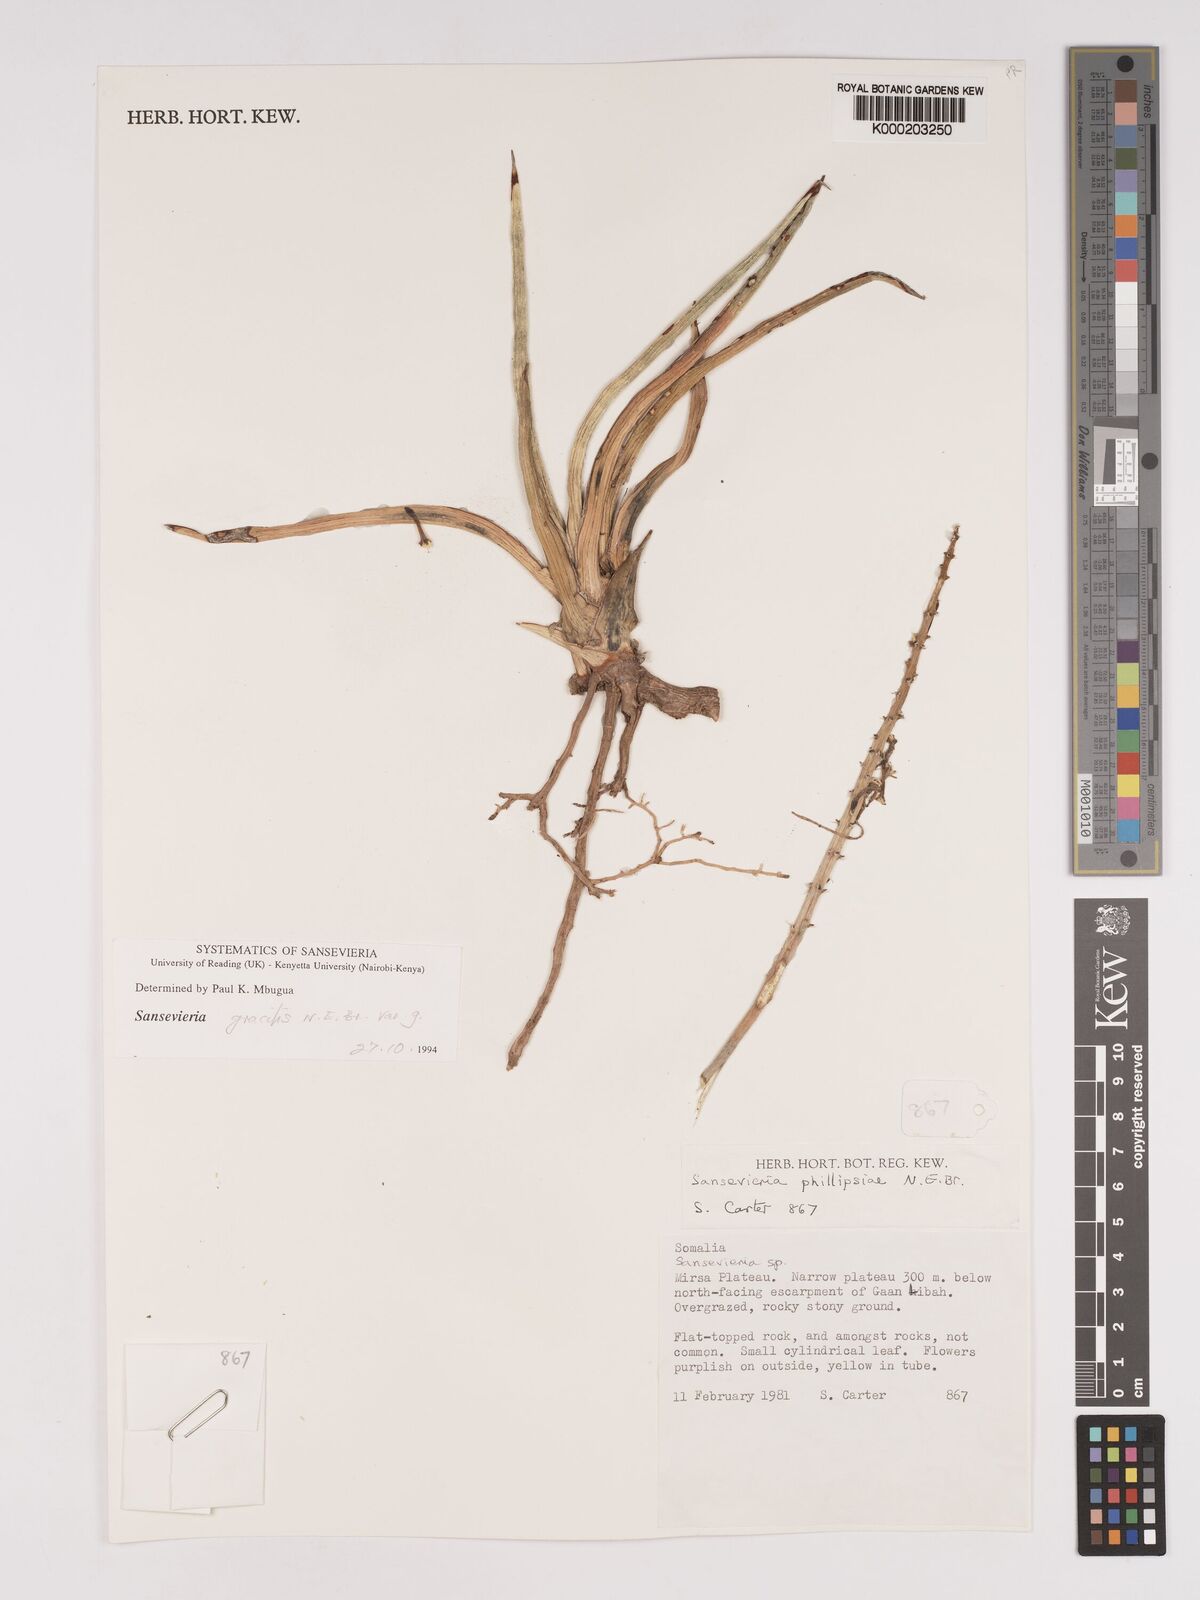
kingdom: Plantae
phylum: Tracheophyta
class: Liliopsida
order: Asparagales
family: Asparagaceae
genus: Dracaena
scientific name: Dracaena phillipsiae
